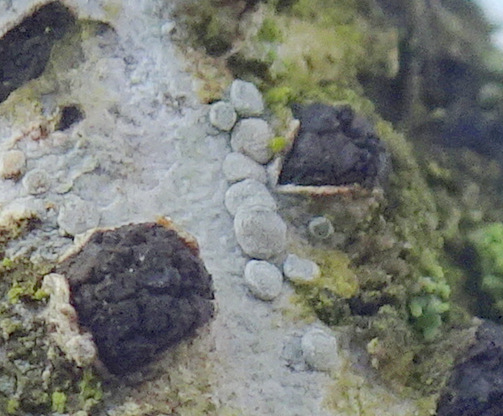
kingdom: Fungi
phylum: Ascomycota
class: Lecanoromycetes
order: Lecanorales
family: Lecanoraceae
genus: Glaucomaria
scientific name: Glaucomaria carpinea
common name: hviddugget kantskivelav
